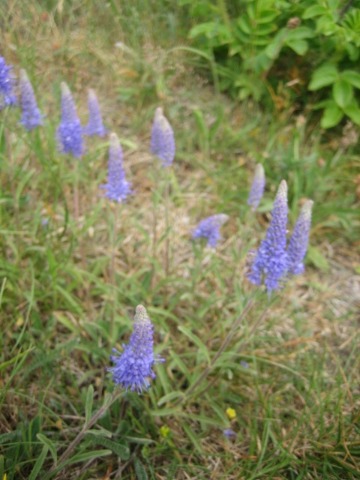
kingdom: Plantae
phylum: Tracheophyta
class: Magnoliopsida
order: Lamiales
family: Plantaginaceae
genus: Veronica
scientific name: Veronica spicata
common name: Aks-ærenpris
